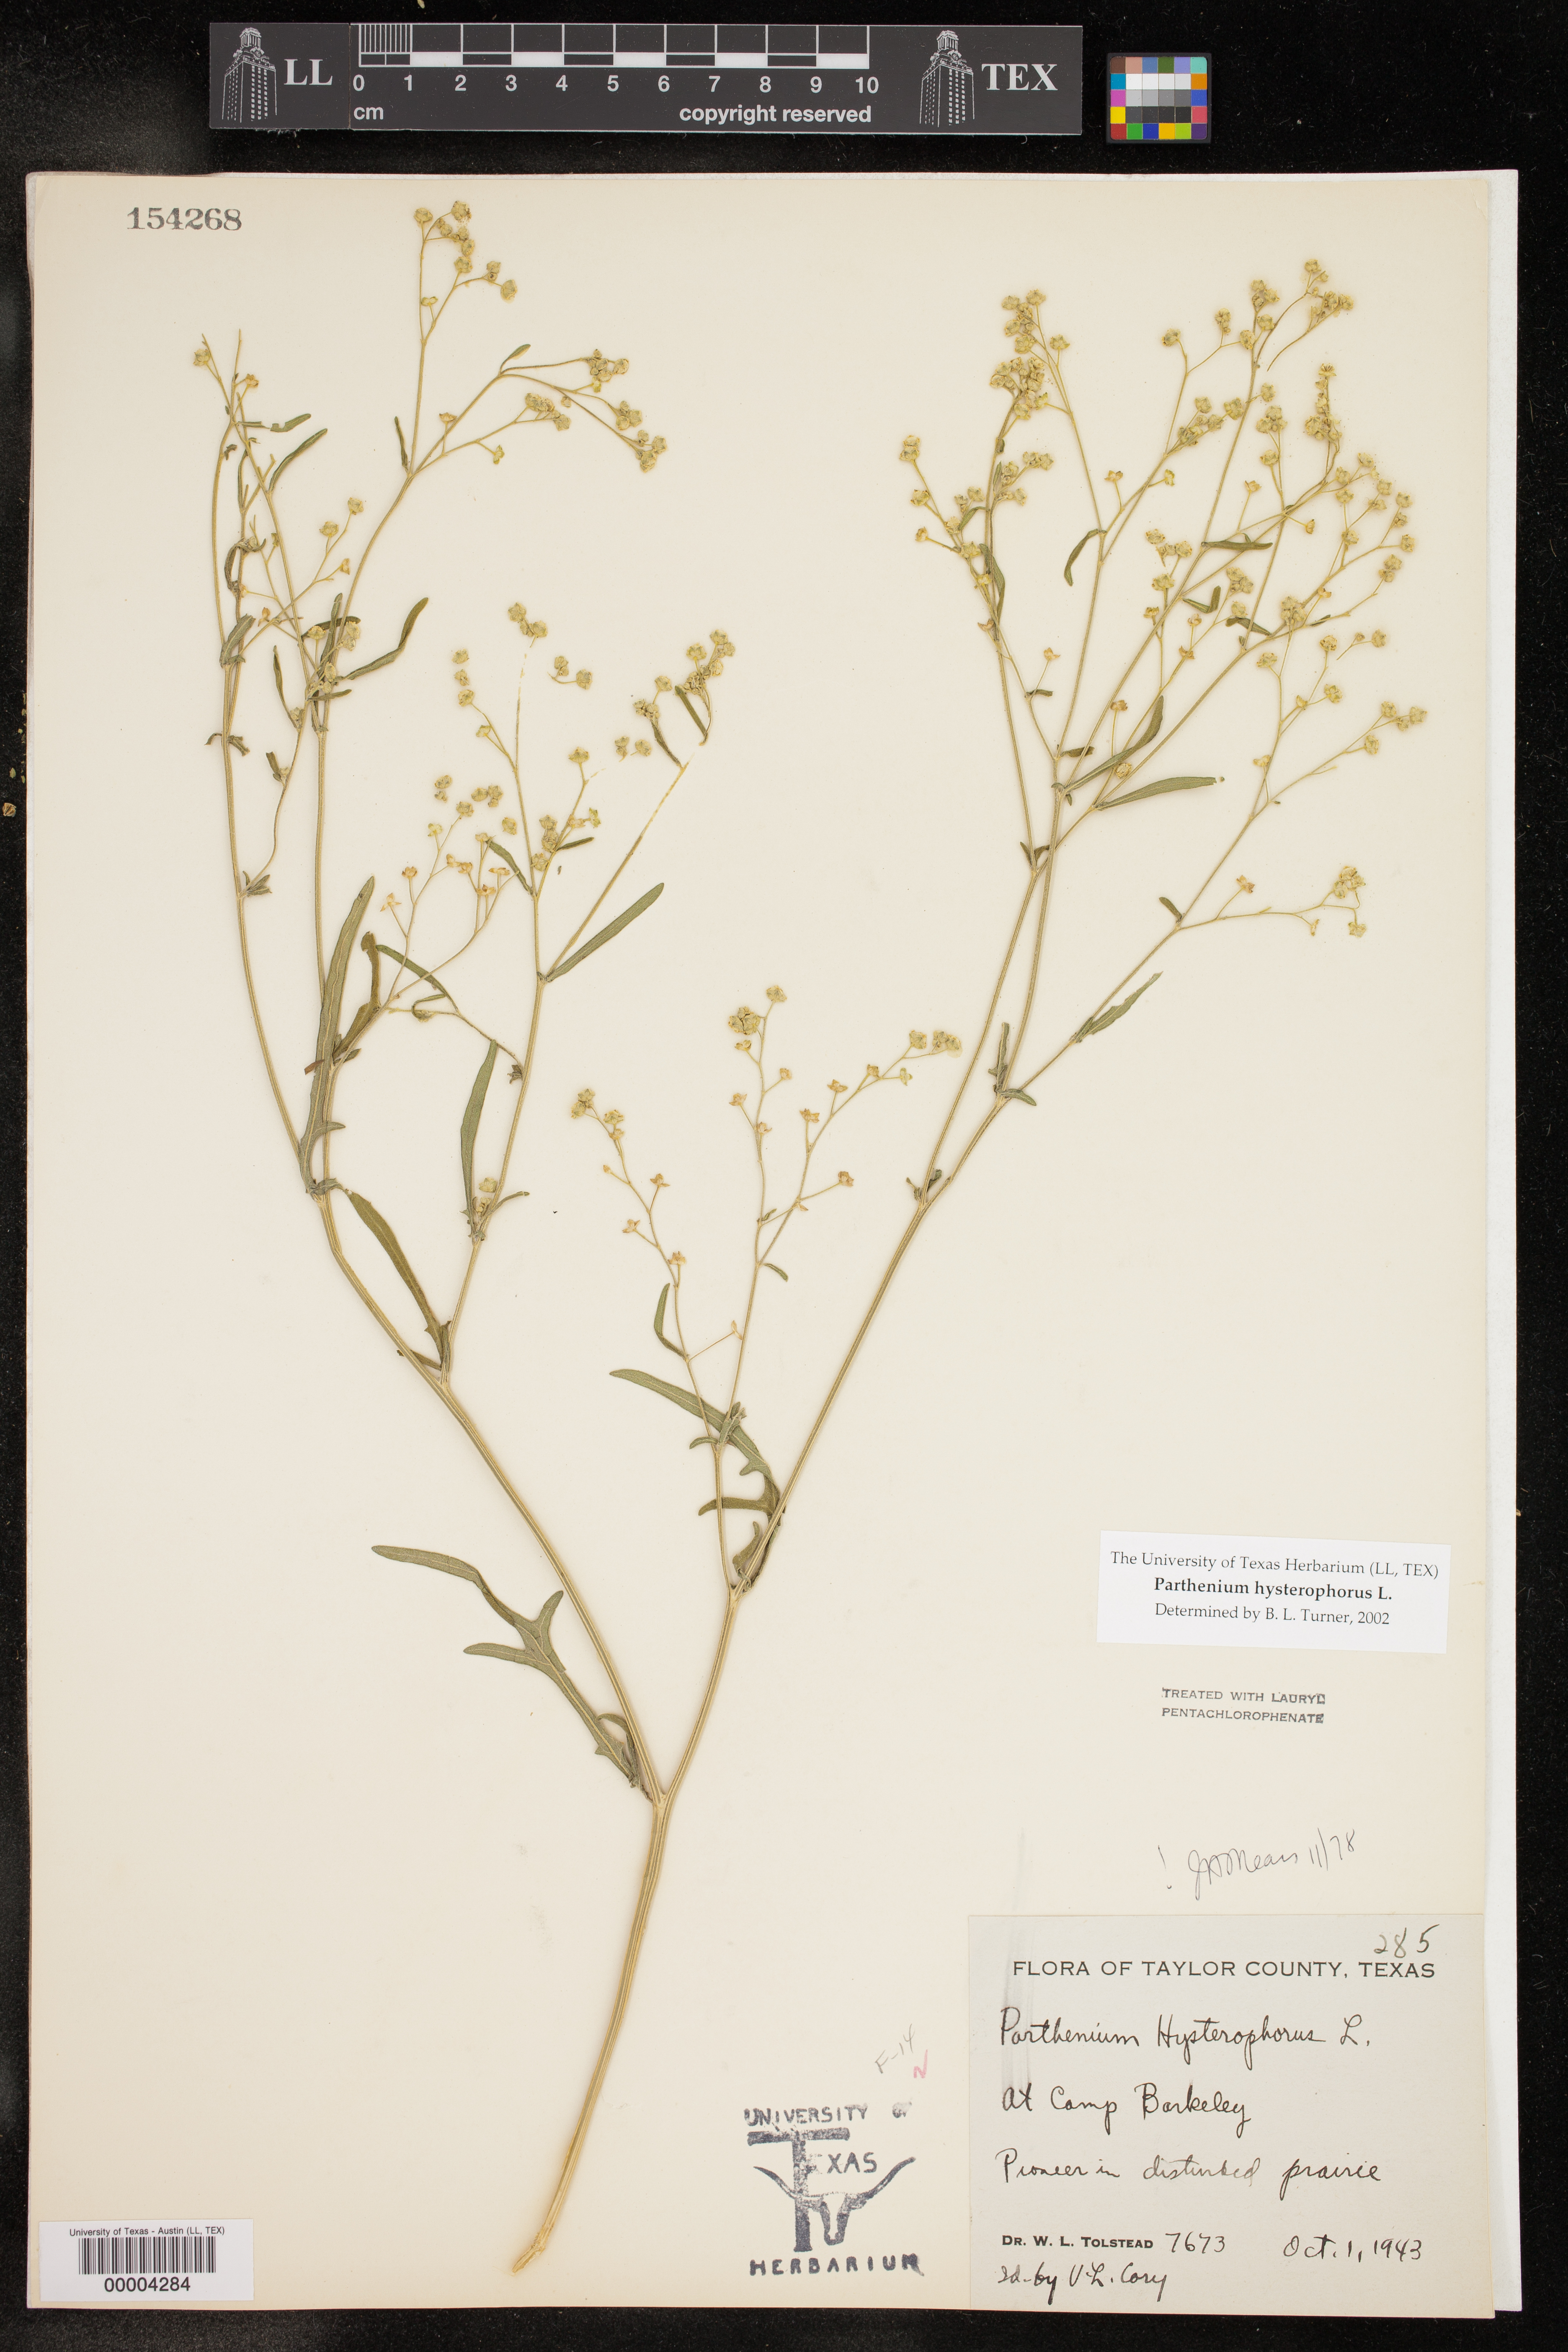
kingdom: Plantae
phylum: Tracheophyta
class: Magnoliopsida
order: Asterales
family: Asteraceae
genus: Parthenium
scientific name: Parthenium hysterophorus
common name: Santa maria feverfew
